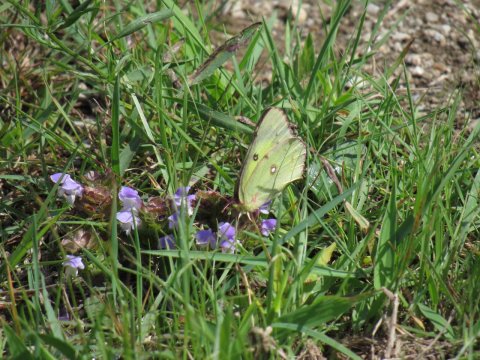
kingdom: Animalia
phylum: Arthropoda
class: Insecta
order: Lepidoptera
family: Pieridae
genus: Colias
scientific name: Colias philodice
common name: Clouded Sulphur
